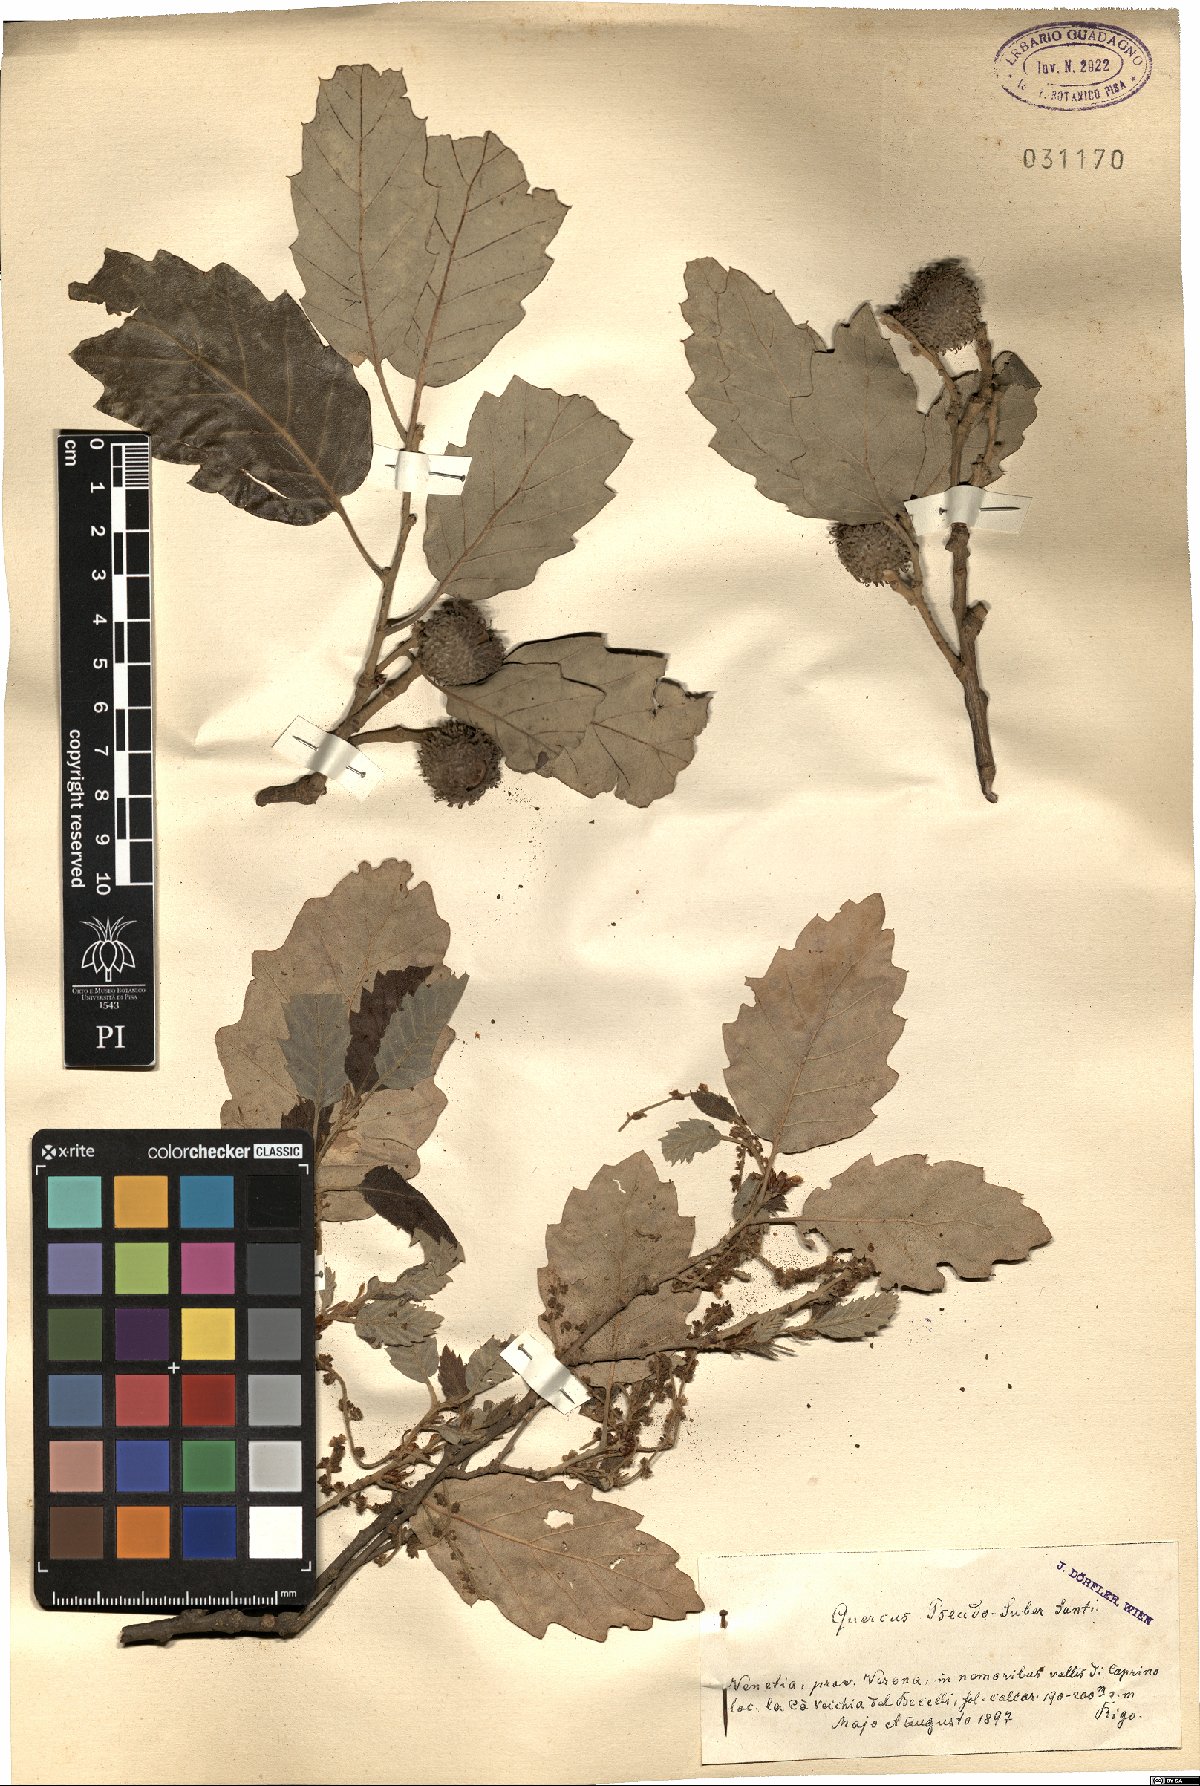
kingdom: Plantae
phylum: Tracheophyta
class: Magnoliopsida
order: Fagales
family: Fagaceae
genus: Quercus
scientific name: Quercus crenata
